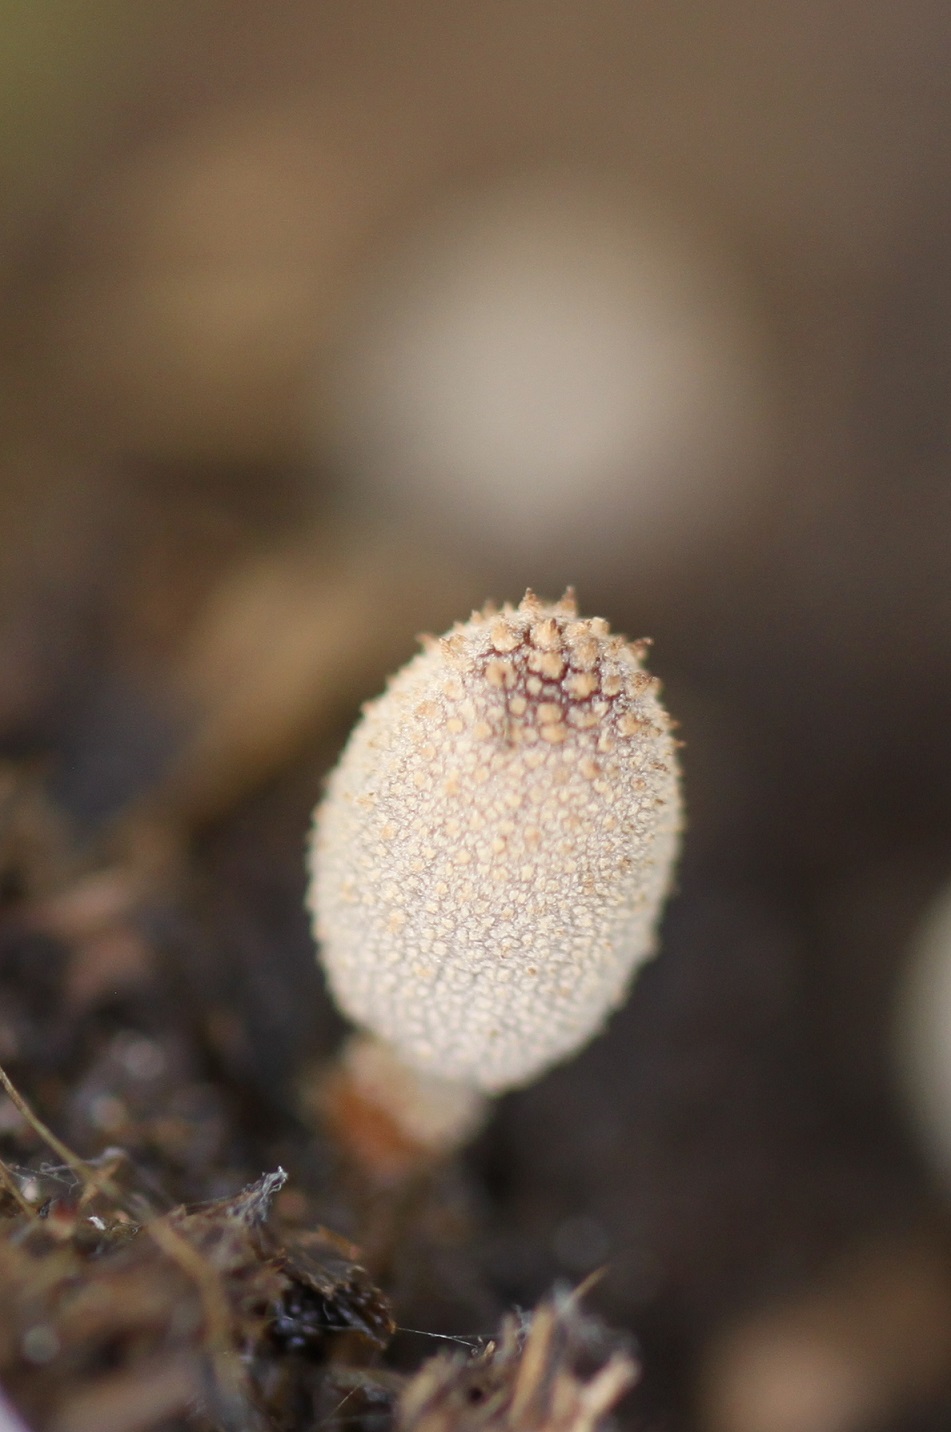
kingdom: Fungi
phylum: Basidiomycota
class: Agaricomycetes
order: Agaricales
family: Psathyrellaceae
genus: Narcissea
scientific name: Narcissea ephemeroides
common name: ring-blækhat
